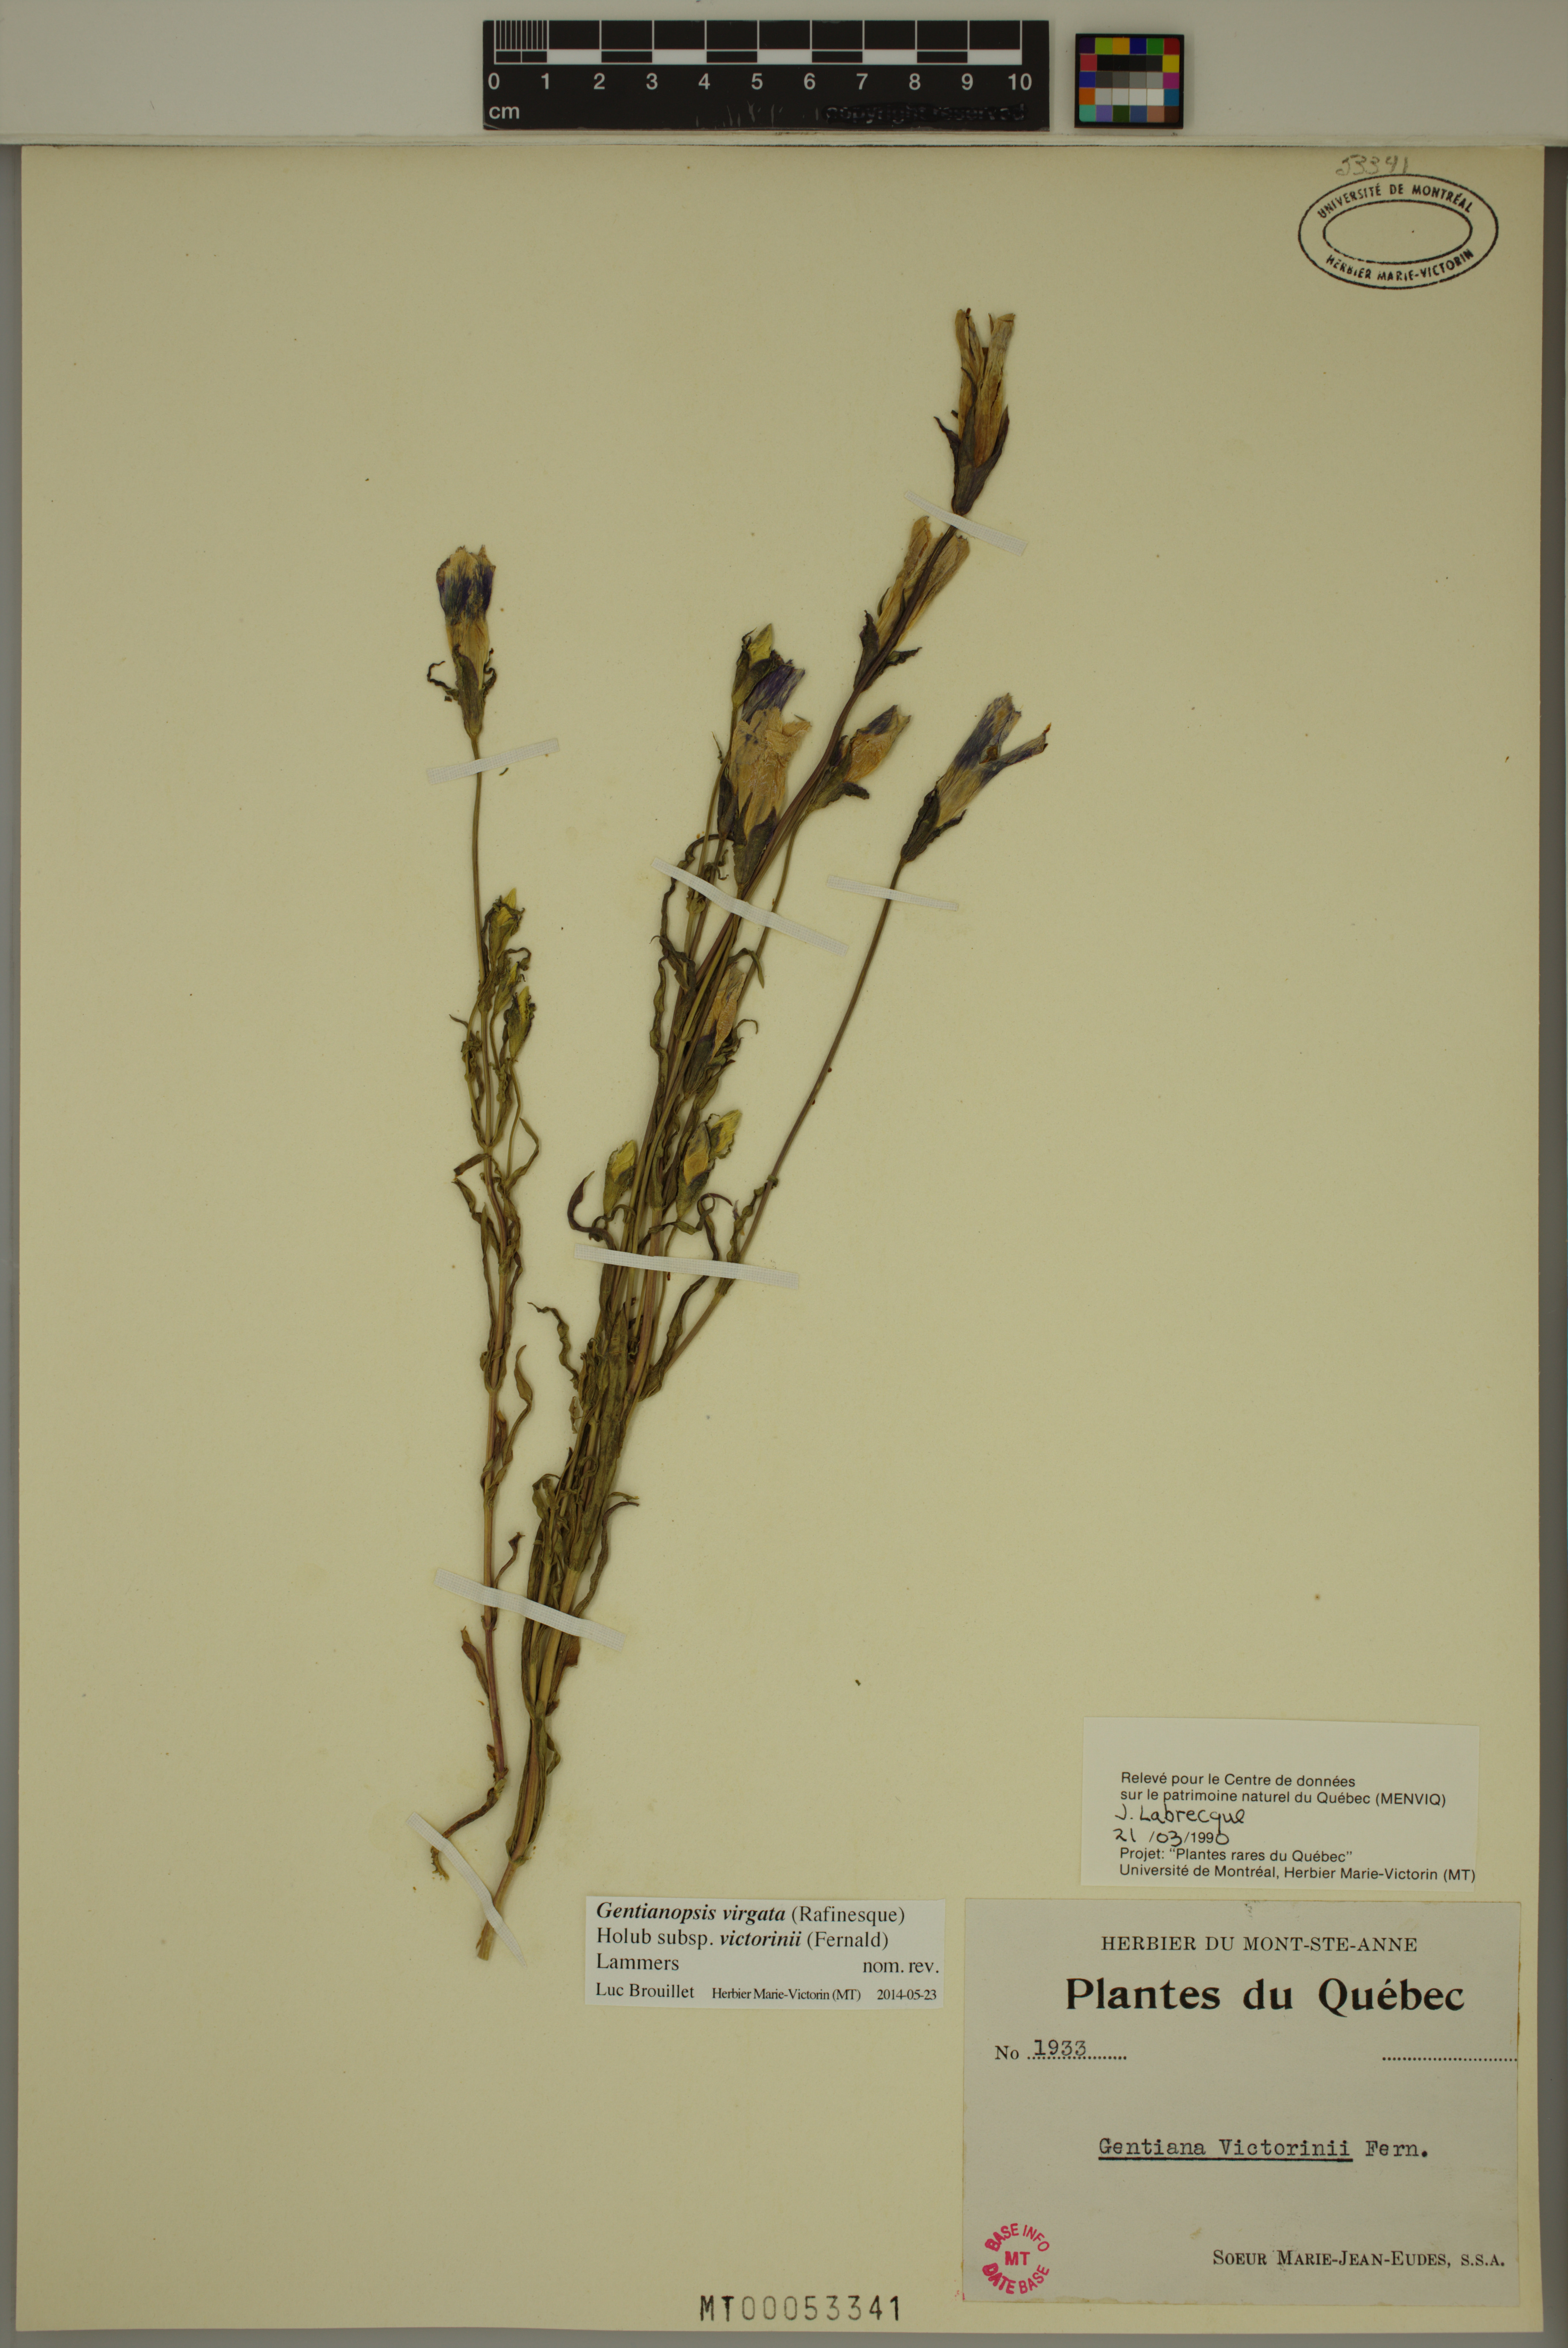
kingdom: Plantae
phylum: Tracheophyta
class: Magnoliopsida
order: Gentianales
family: Gentianaceae
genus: Gentianopsis
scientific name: Gentianopsis victorinii
